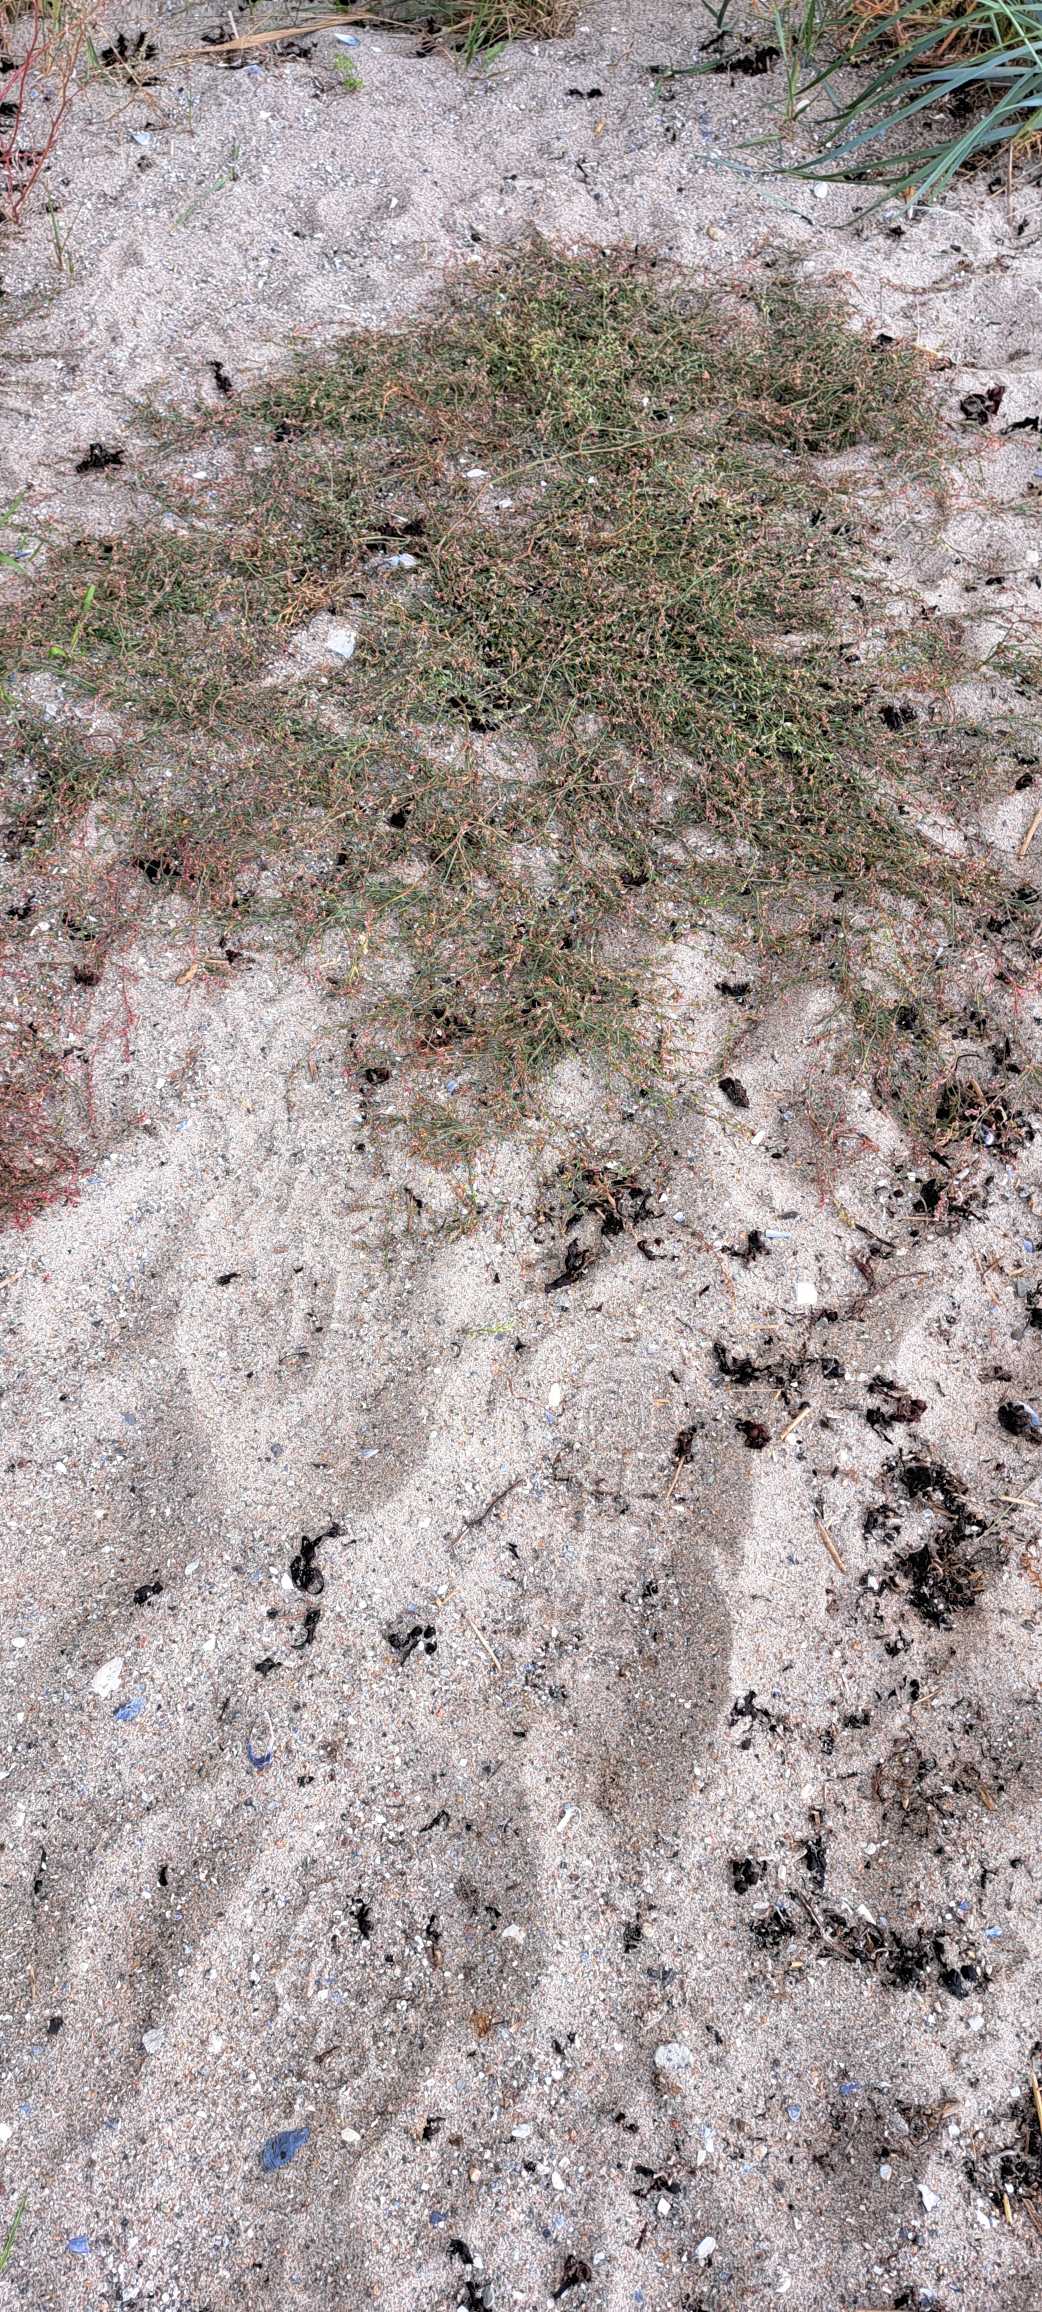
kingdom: Plantae
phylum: Tracheophyta
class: Magnoliopsida
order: Caryophyllales
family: Polygonaceae
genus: Polygonum
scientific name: Polygonum arenastrum
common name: Liggende vej-pileurt
